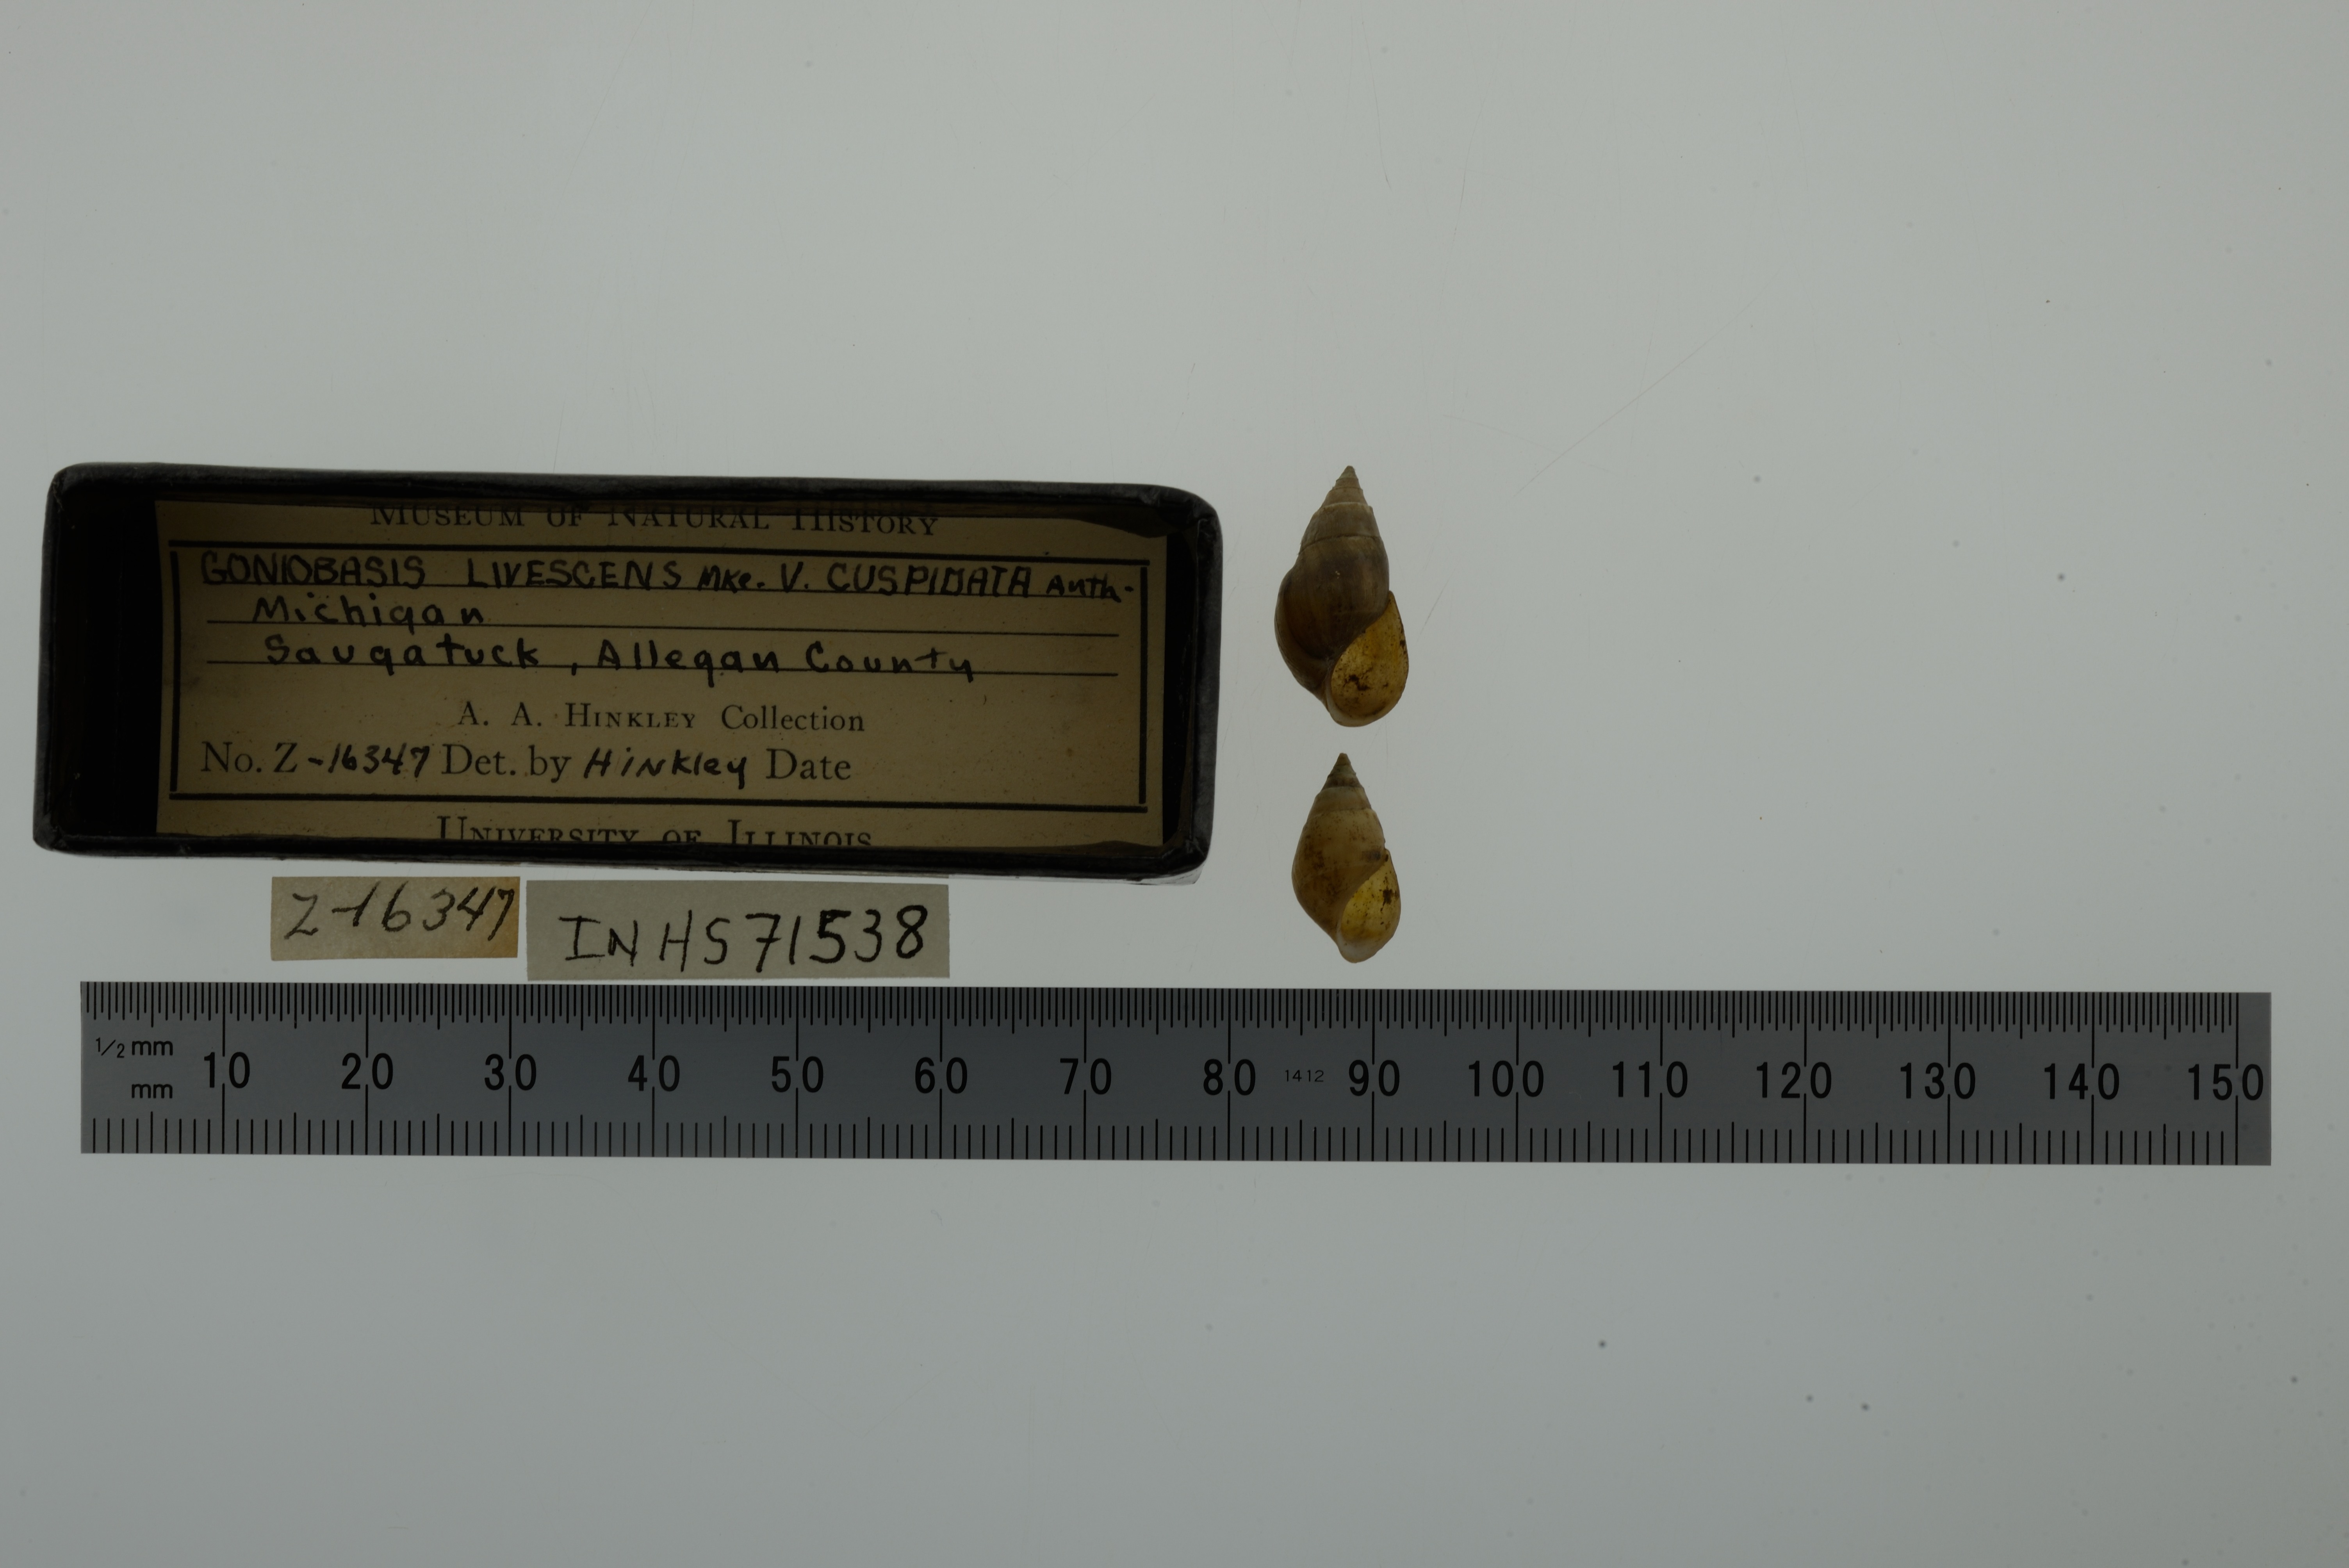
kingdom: Animalia
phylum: Mollusca
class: Gastropoda
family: Pleuroceridae
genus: Elimia
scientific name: Elimia livescens
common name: Liver elimia
